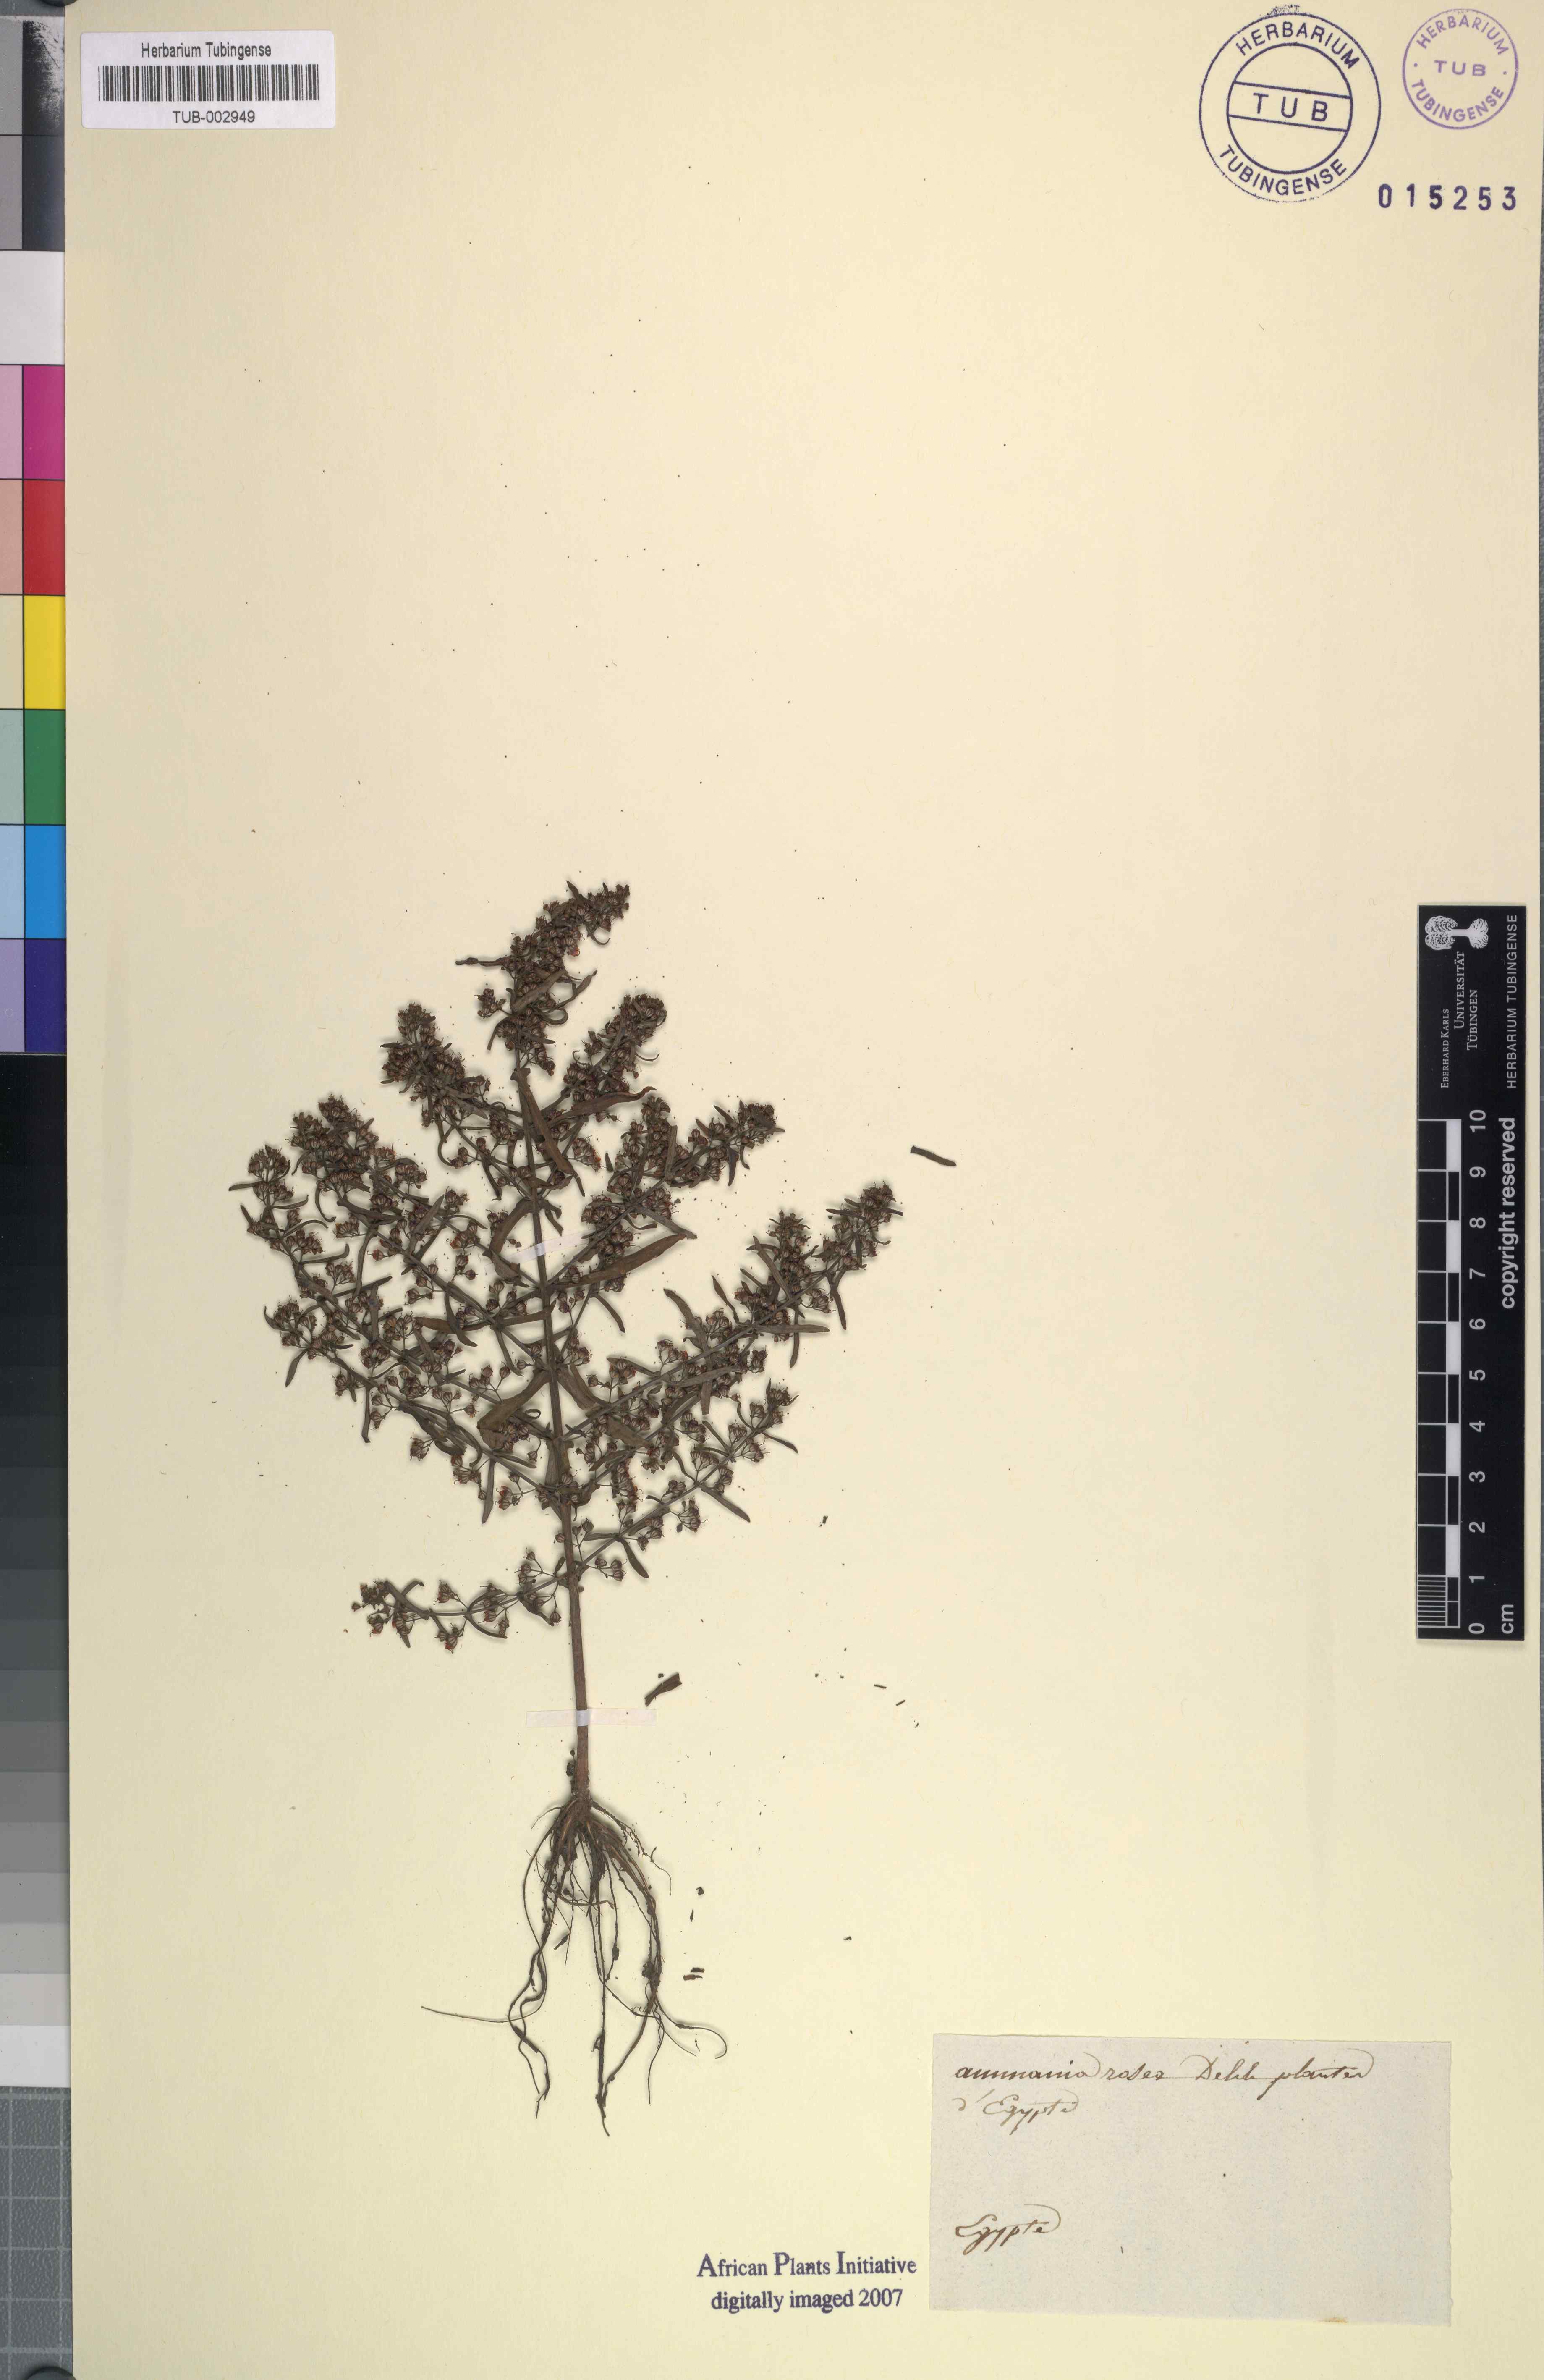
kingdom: Plantae
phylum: Tracheophyta
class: Magnoliopsida
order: Myrtales
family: Lythraceae
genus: Rotala
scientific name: Rotala rosea
